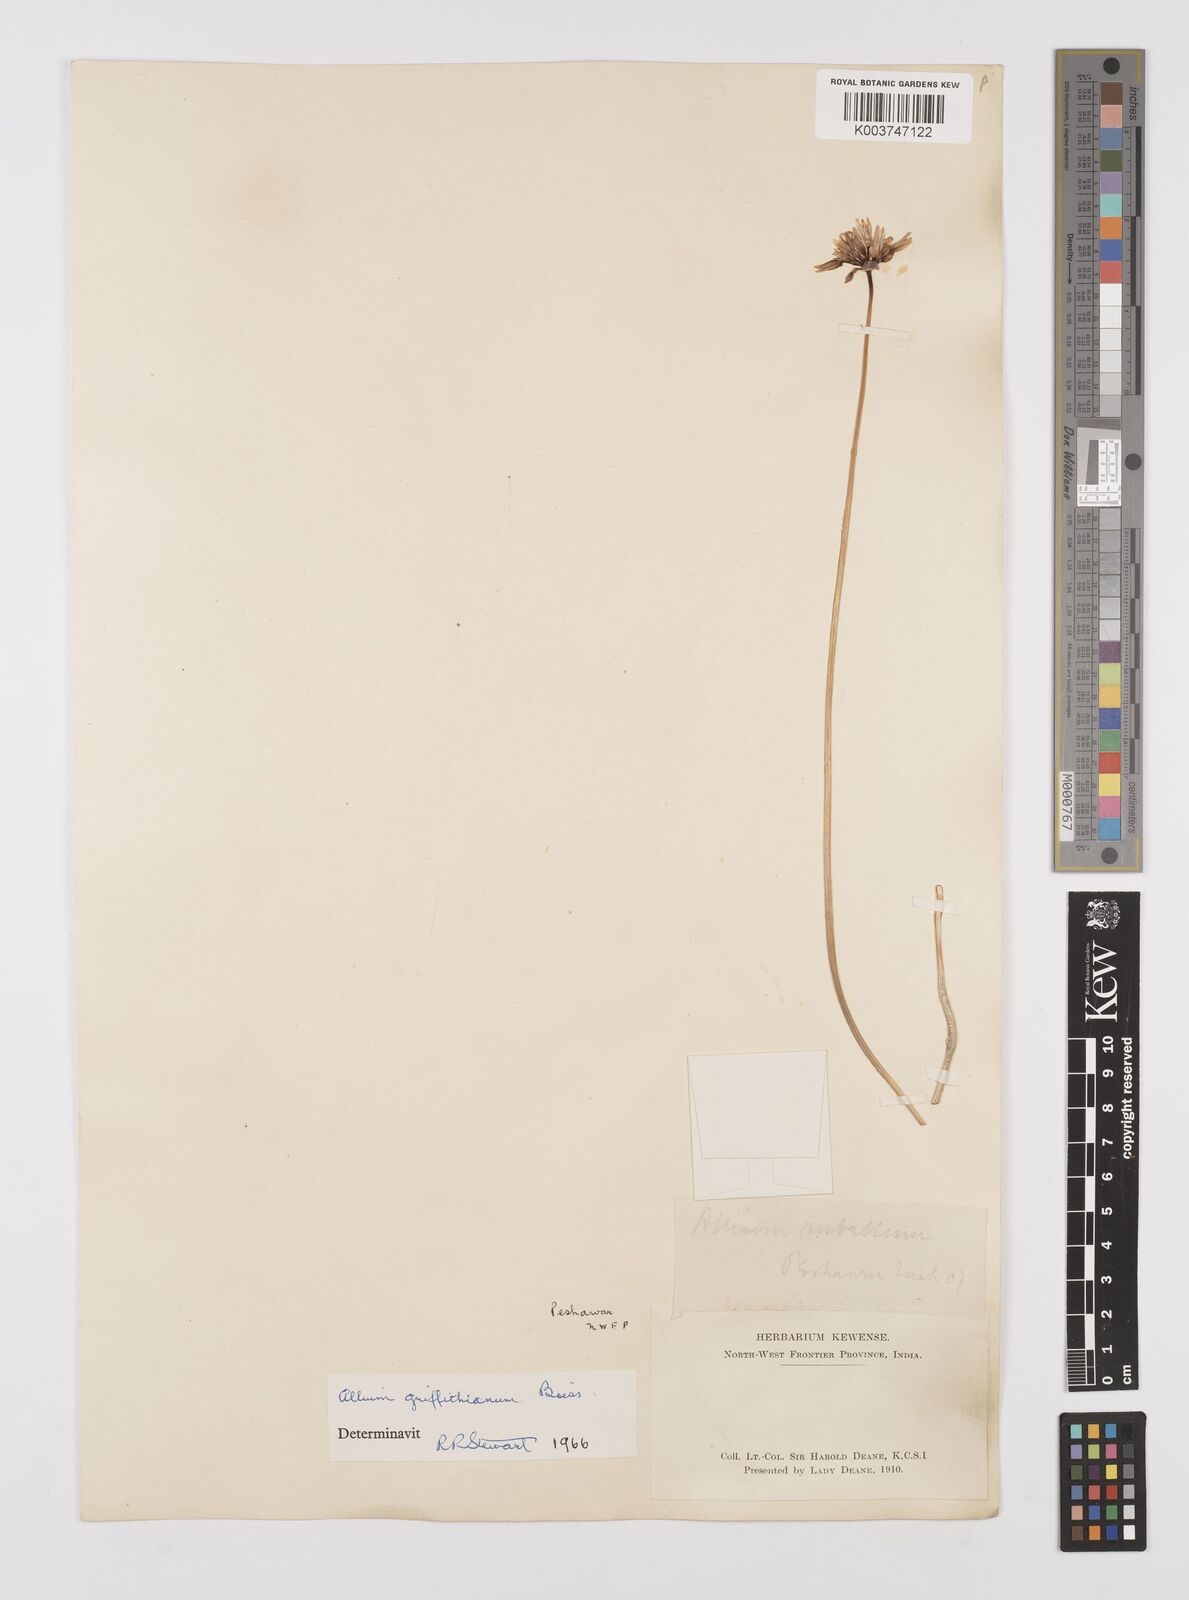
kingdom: Plantae
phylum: Tracheophyta
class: Liliopsida
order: Asparagales
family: Amaryllidaceae
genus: Allium
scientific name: Allium griffithianum
